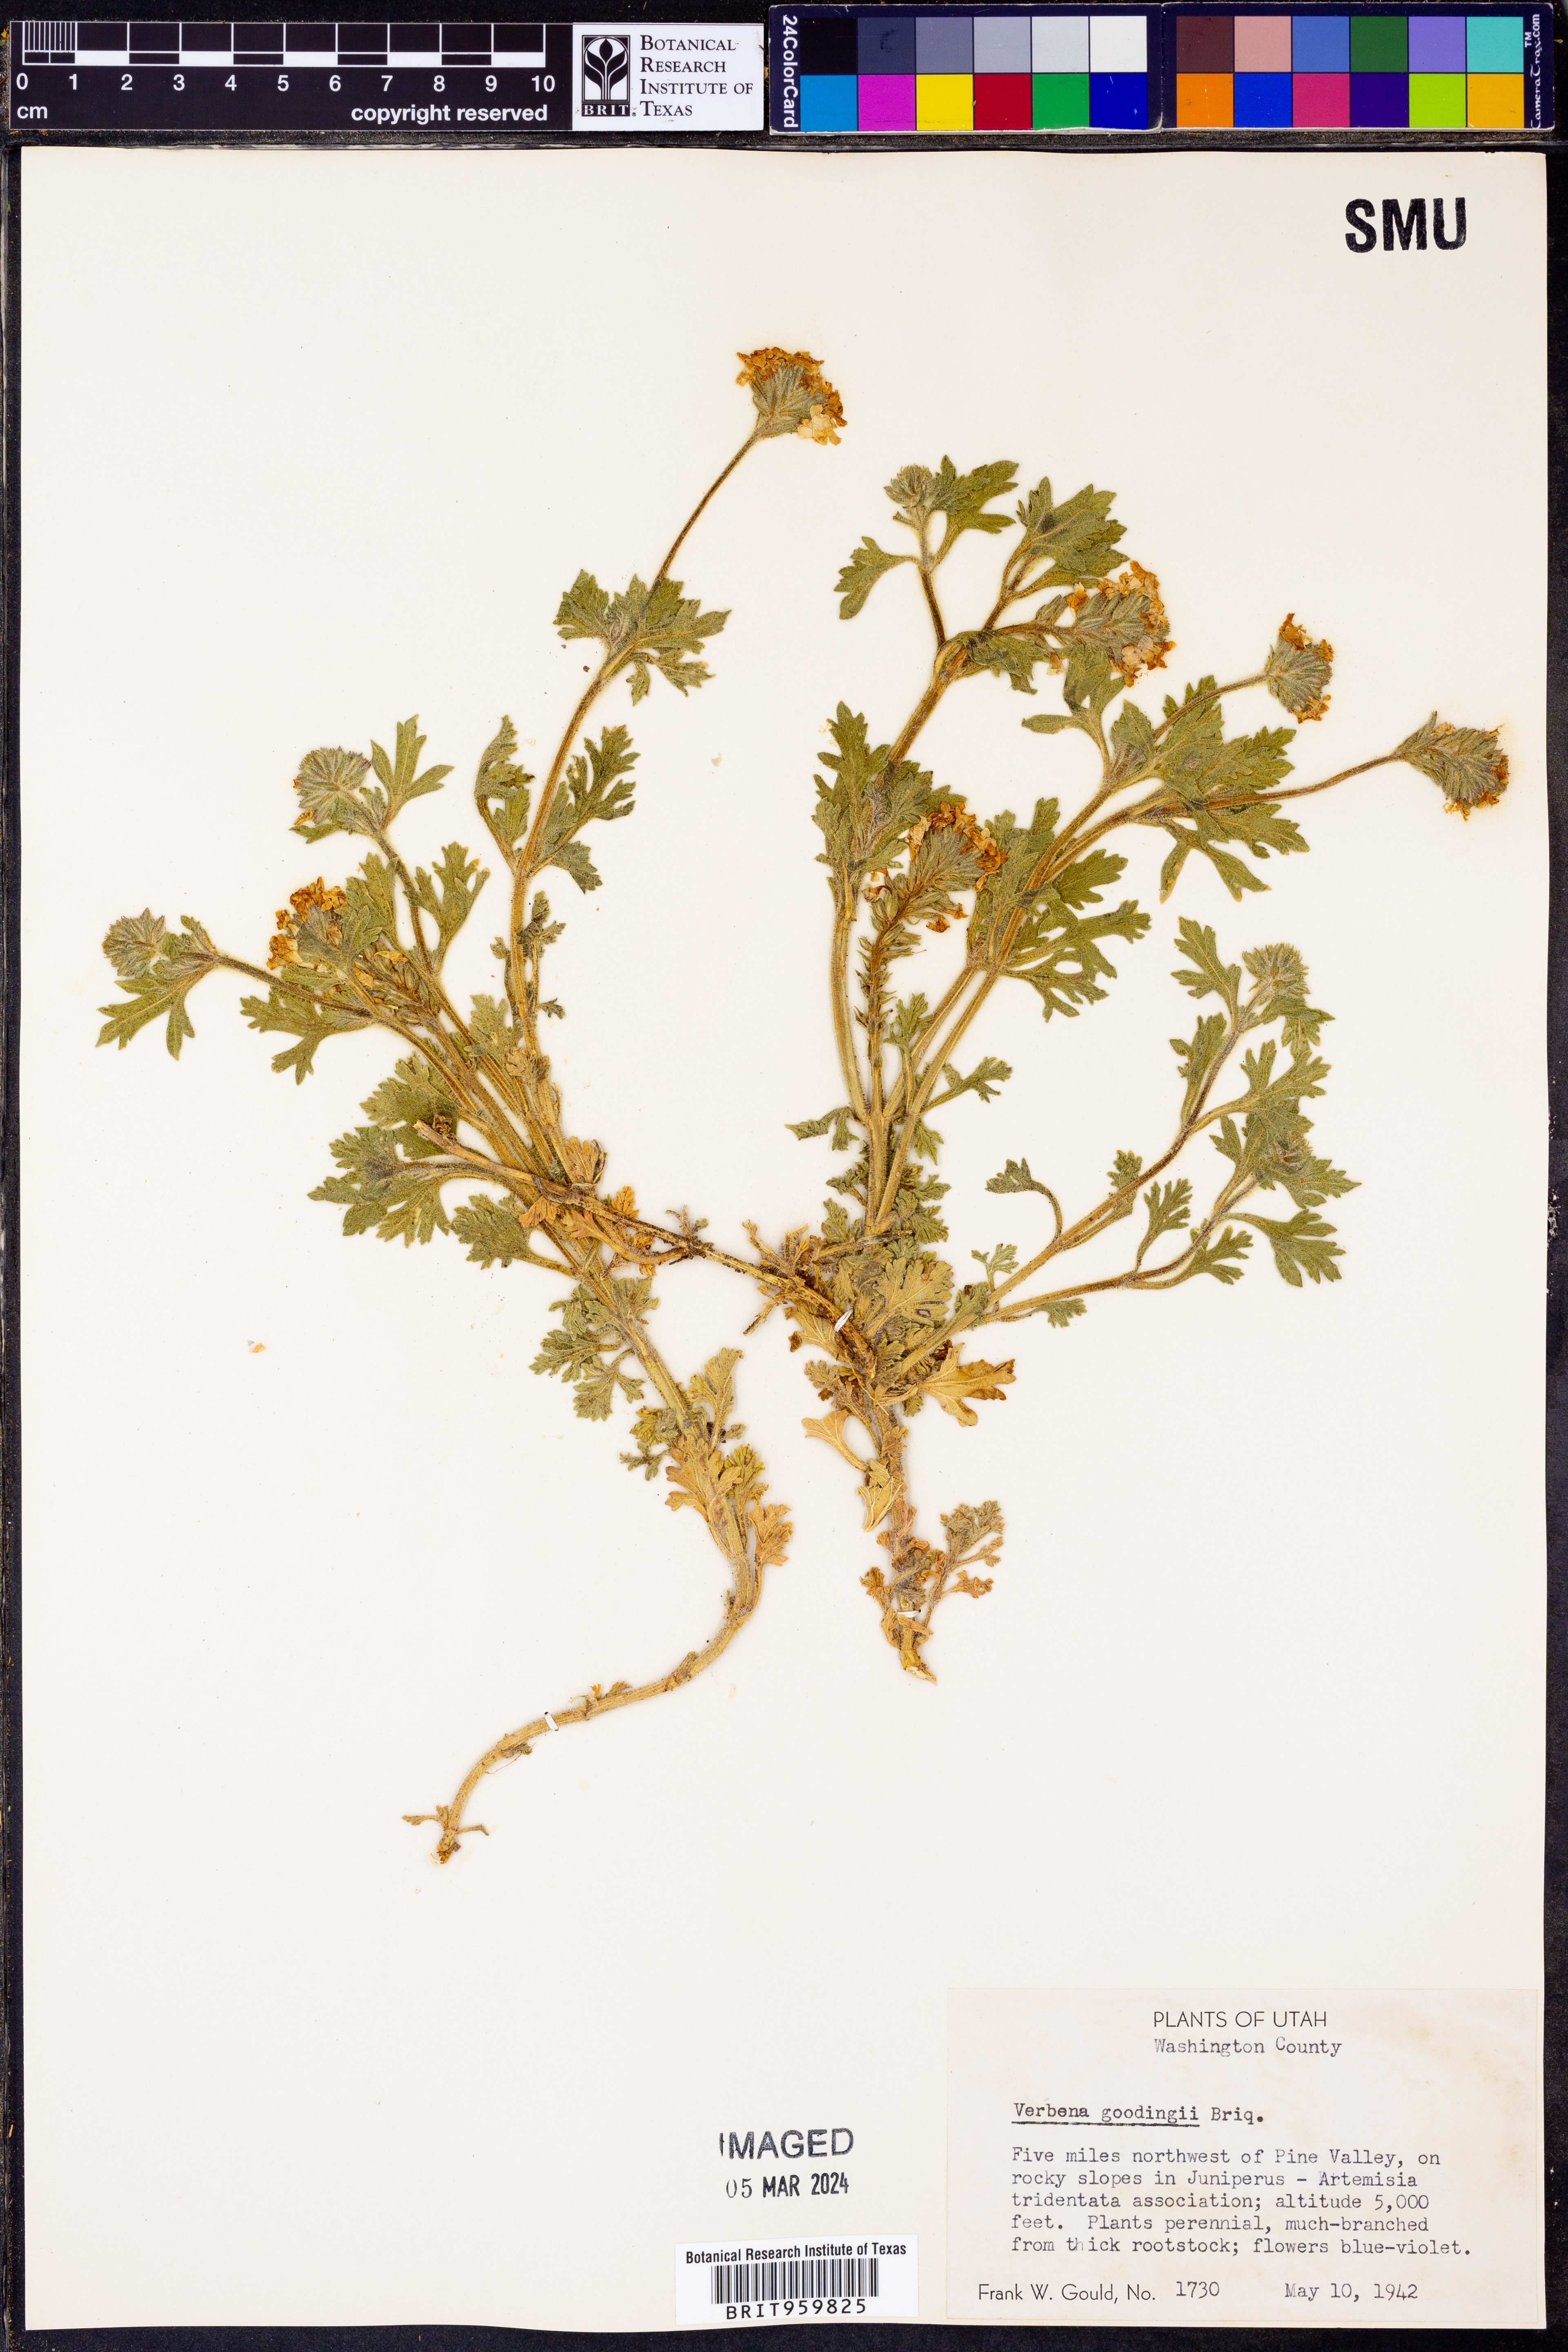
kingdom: Plantae
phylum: Tracheophyta
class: Magnoliopsida
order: Lamiales
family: Verbenaceae
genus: Verbena
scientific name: Verbena gooddingii
